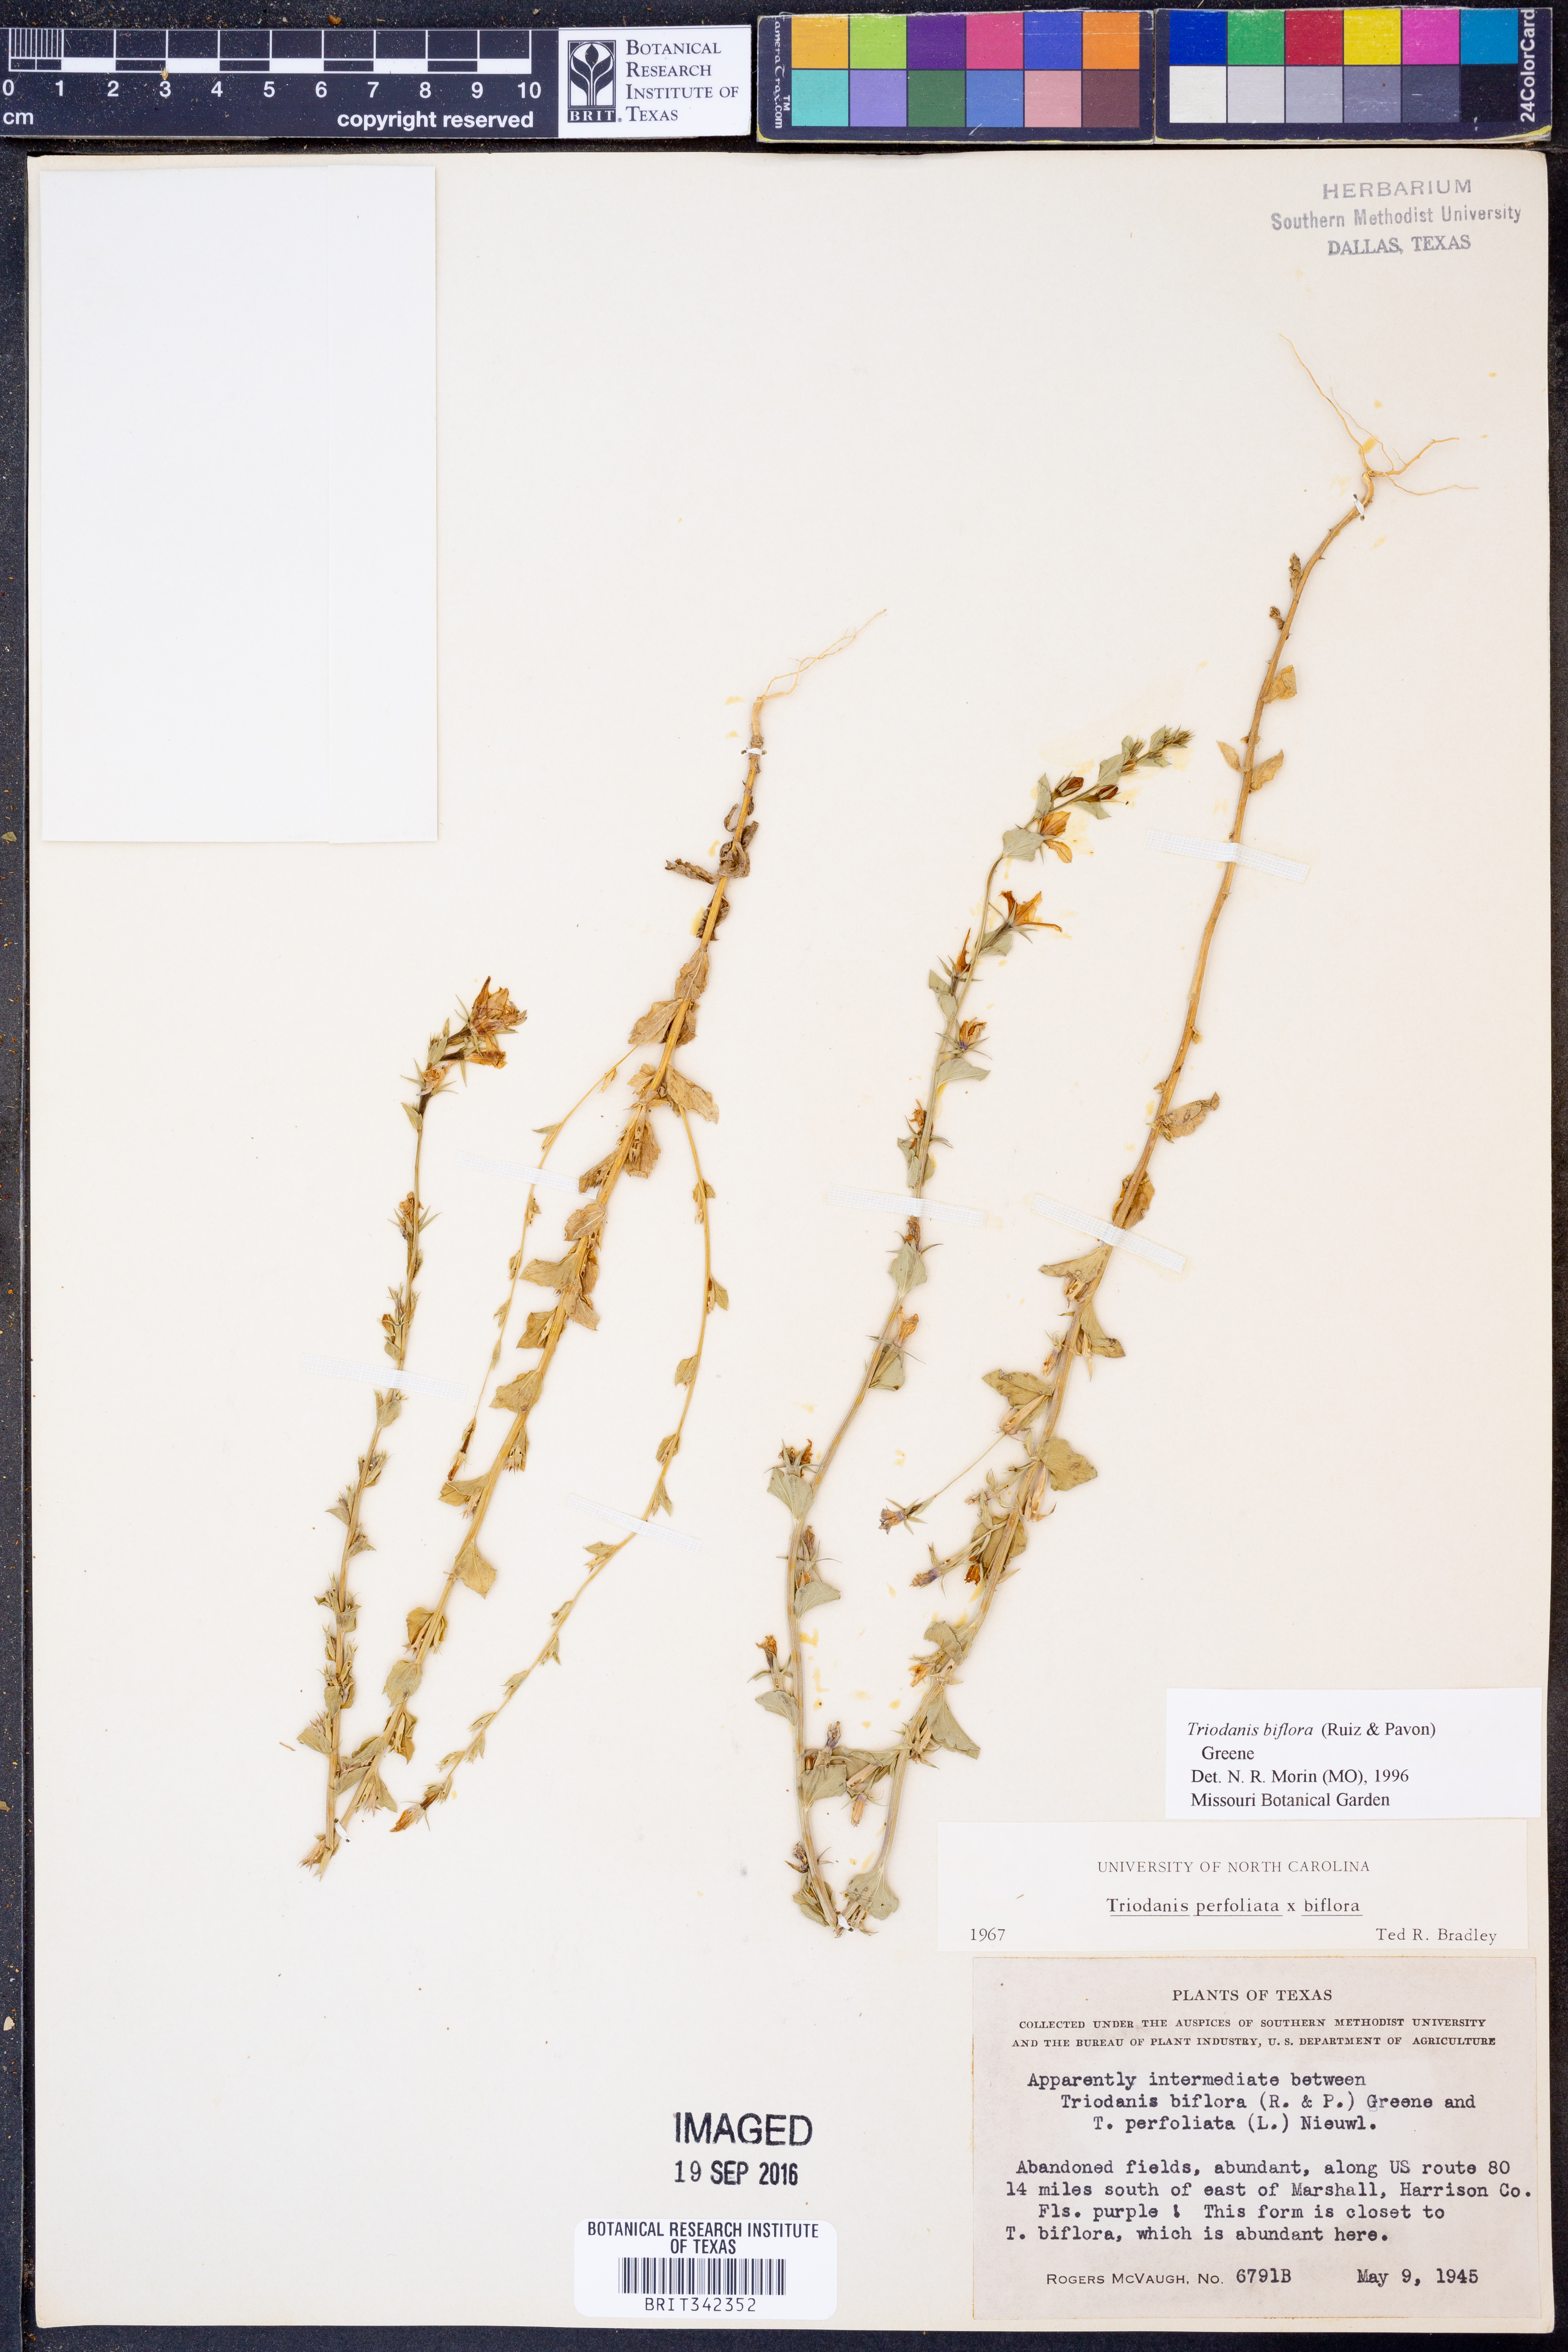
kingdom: Plantae
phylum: Tracheophyta
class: Magnoliopsida
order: Asterales
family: Campanulaceae
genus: Triodanis
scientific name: Triodanis perfoliata
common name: Clasping venus' looking-glass
